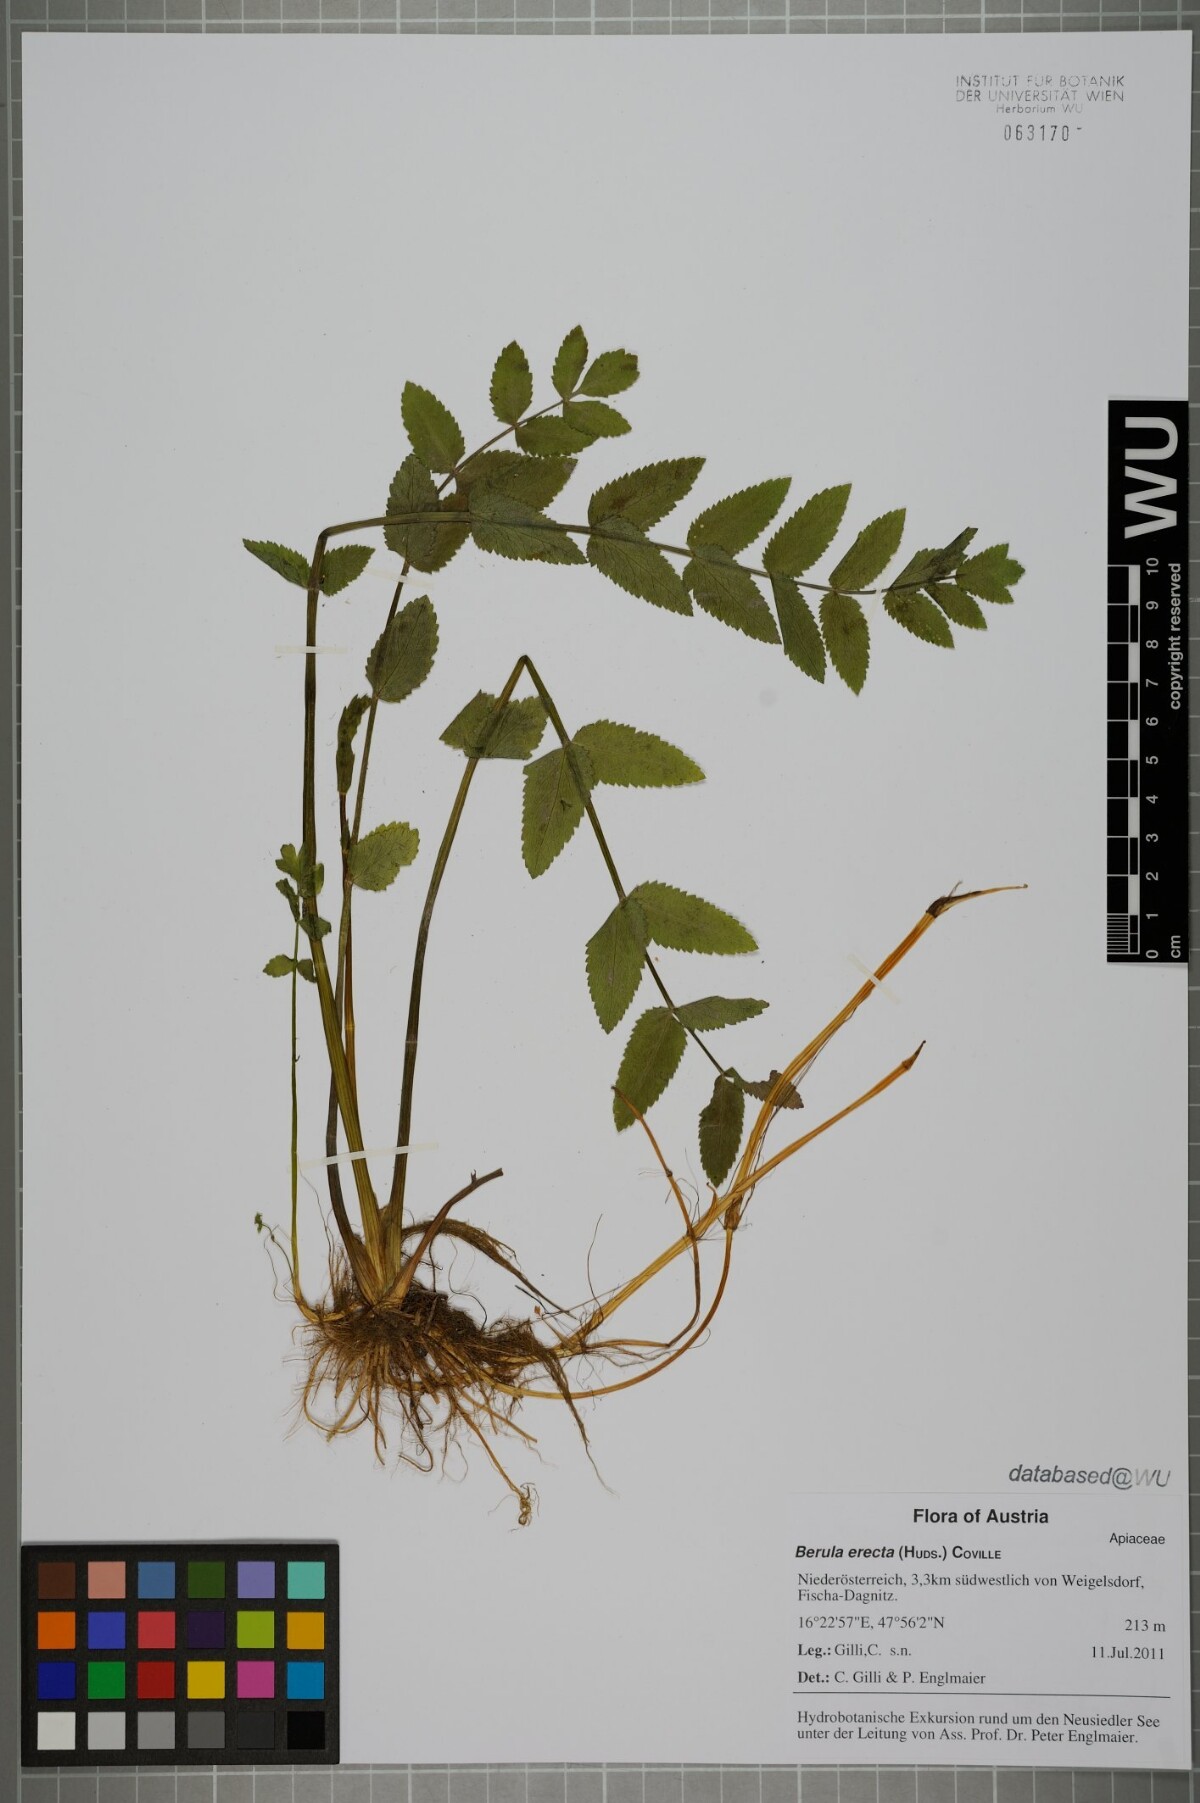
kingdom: Plantae
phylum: Tracheophyta
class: Magnoliopsida
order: Apiales
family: Apiaceae
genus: Berula
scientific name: Berula erecta
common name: Lesser water-parsnip
